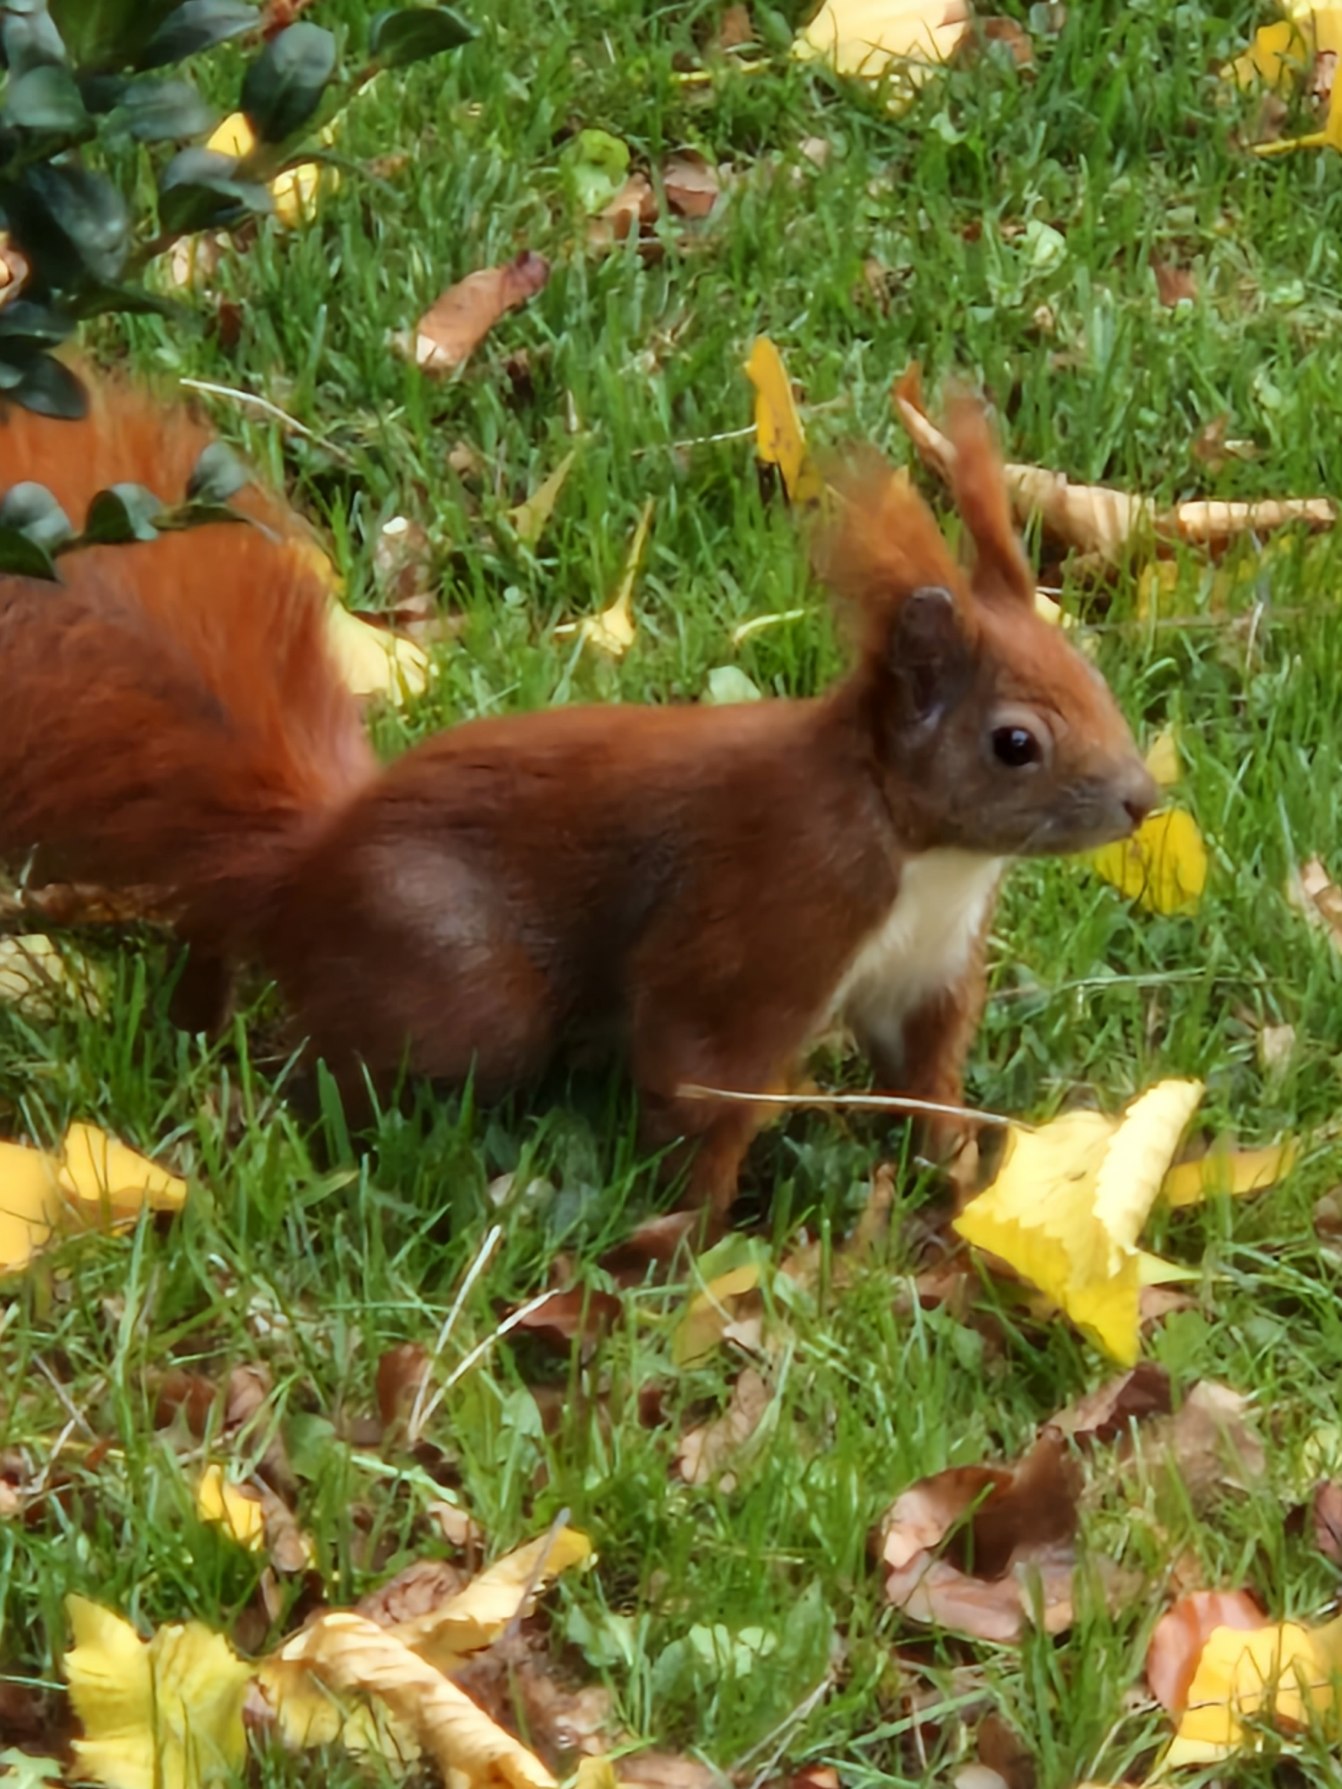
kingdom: Animalia
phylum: Chordata
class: Mammalia
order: Rodentia
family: Sciuridae
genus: Sciurus
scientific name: Sciurus vulgaris
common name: Egern
